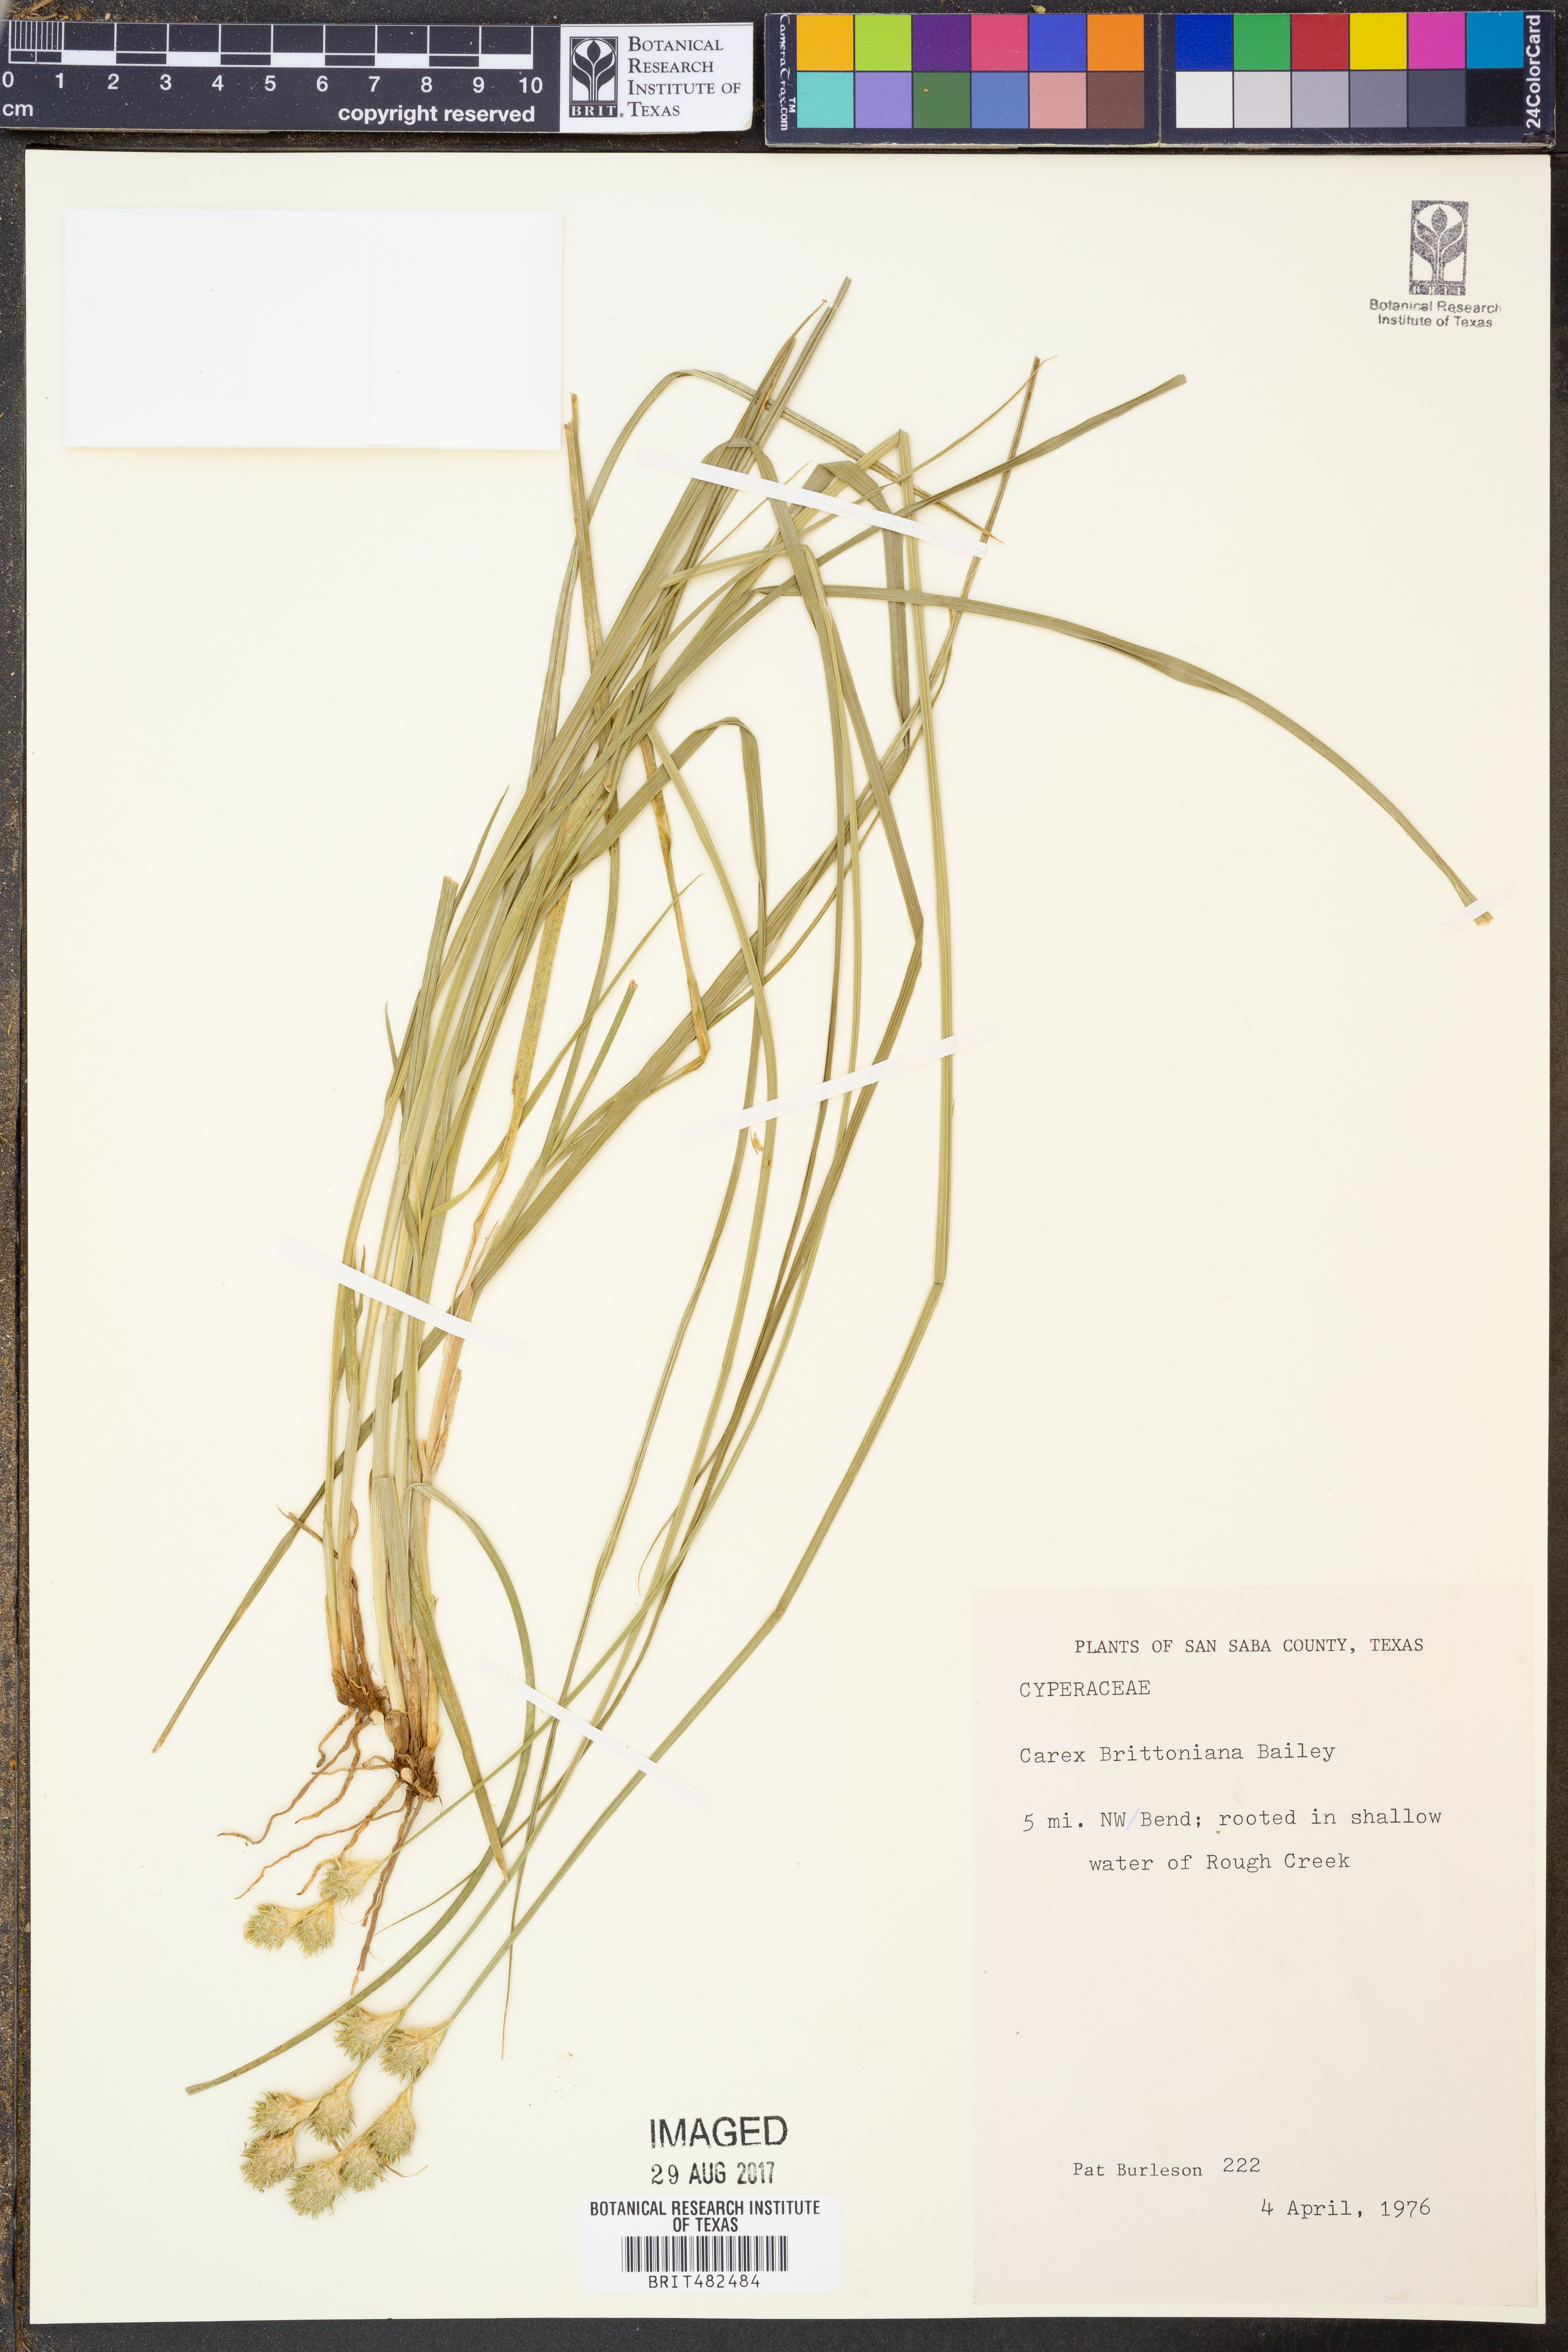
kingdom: Plantae
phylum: Tracheophyta
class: Liliopsida
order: Poales
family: Cyperaceae
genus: Carex
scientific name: Carex tetrastachya
